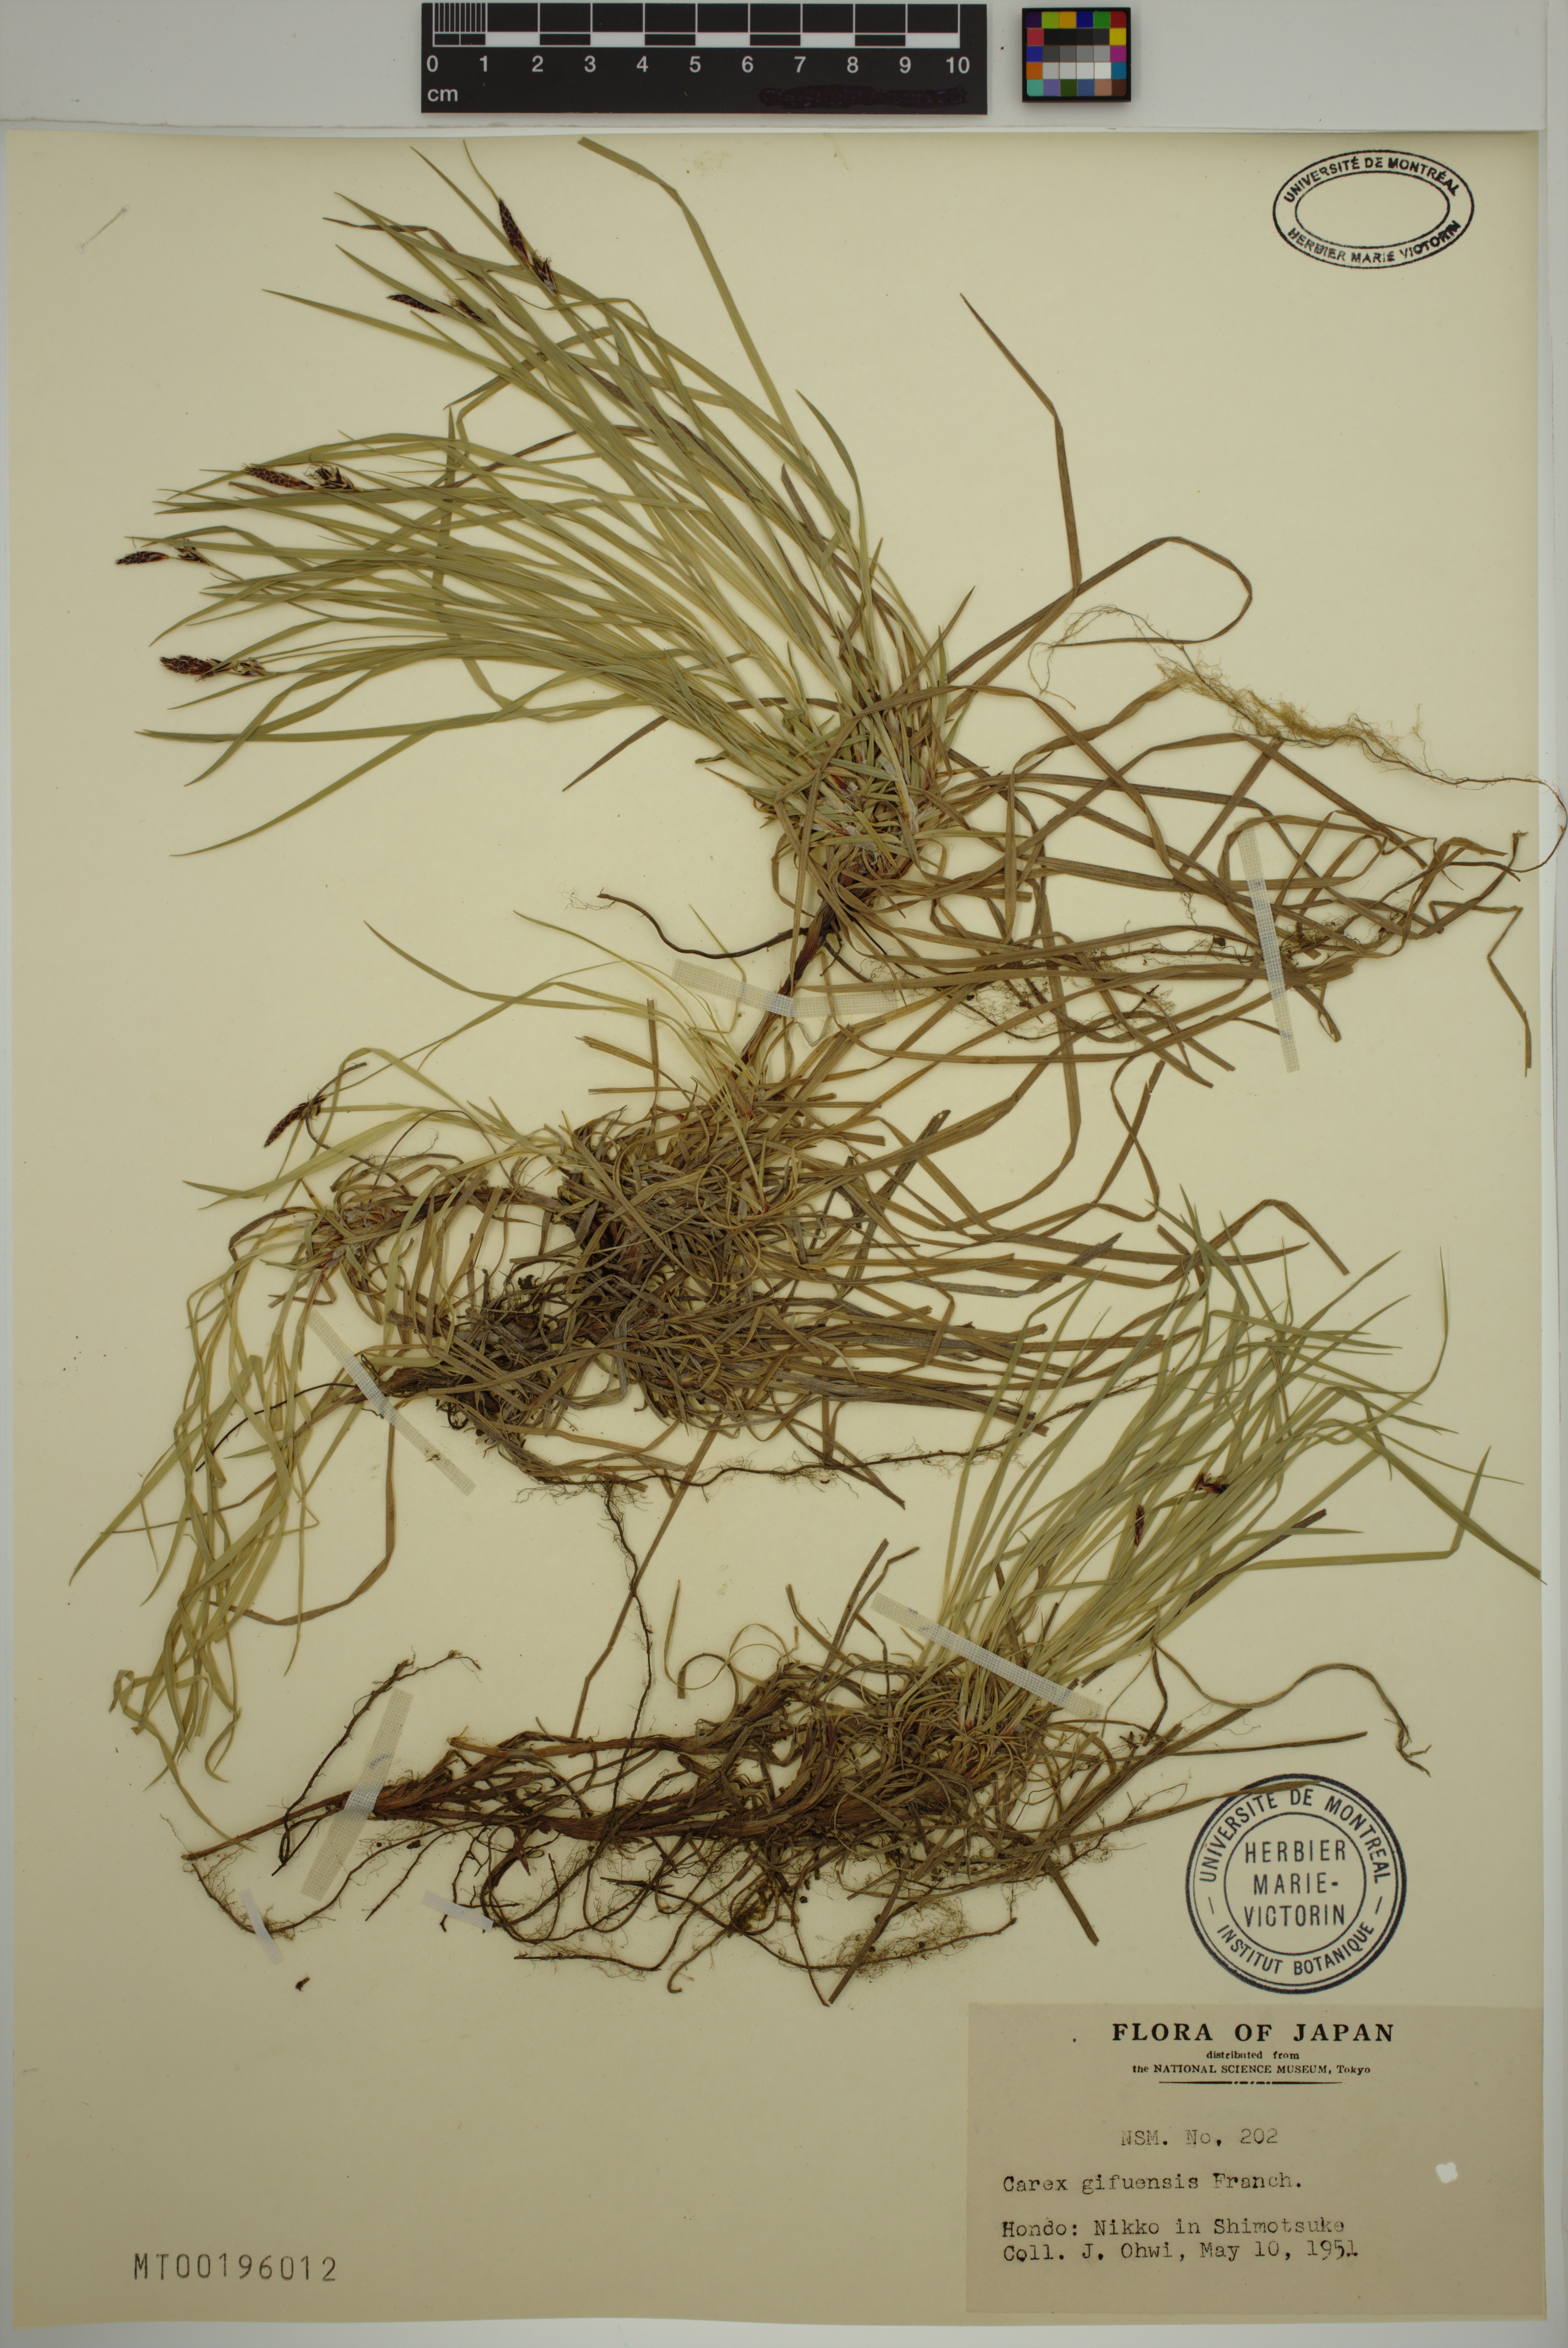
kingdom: Plantae
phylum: Tracheophyta
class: Liliopsida
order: Poales
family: Cyperaceae
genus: Carex
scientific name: Carex gifuensis
